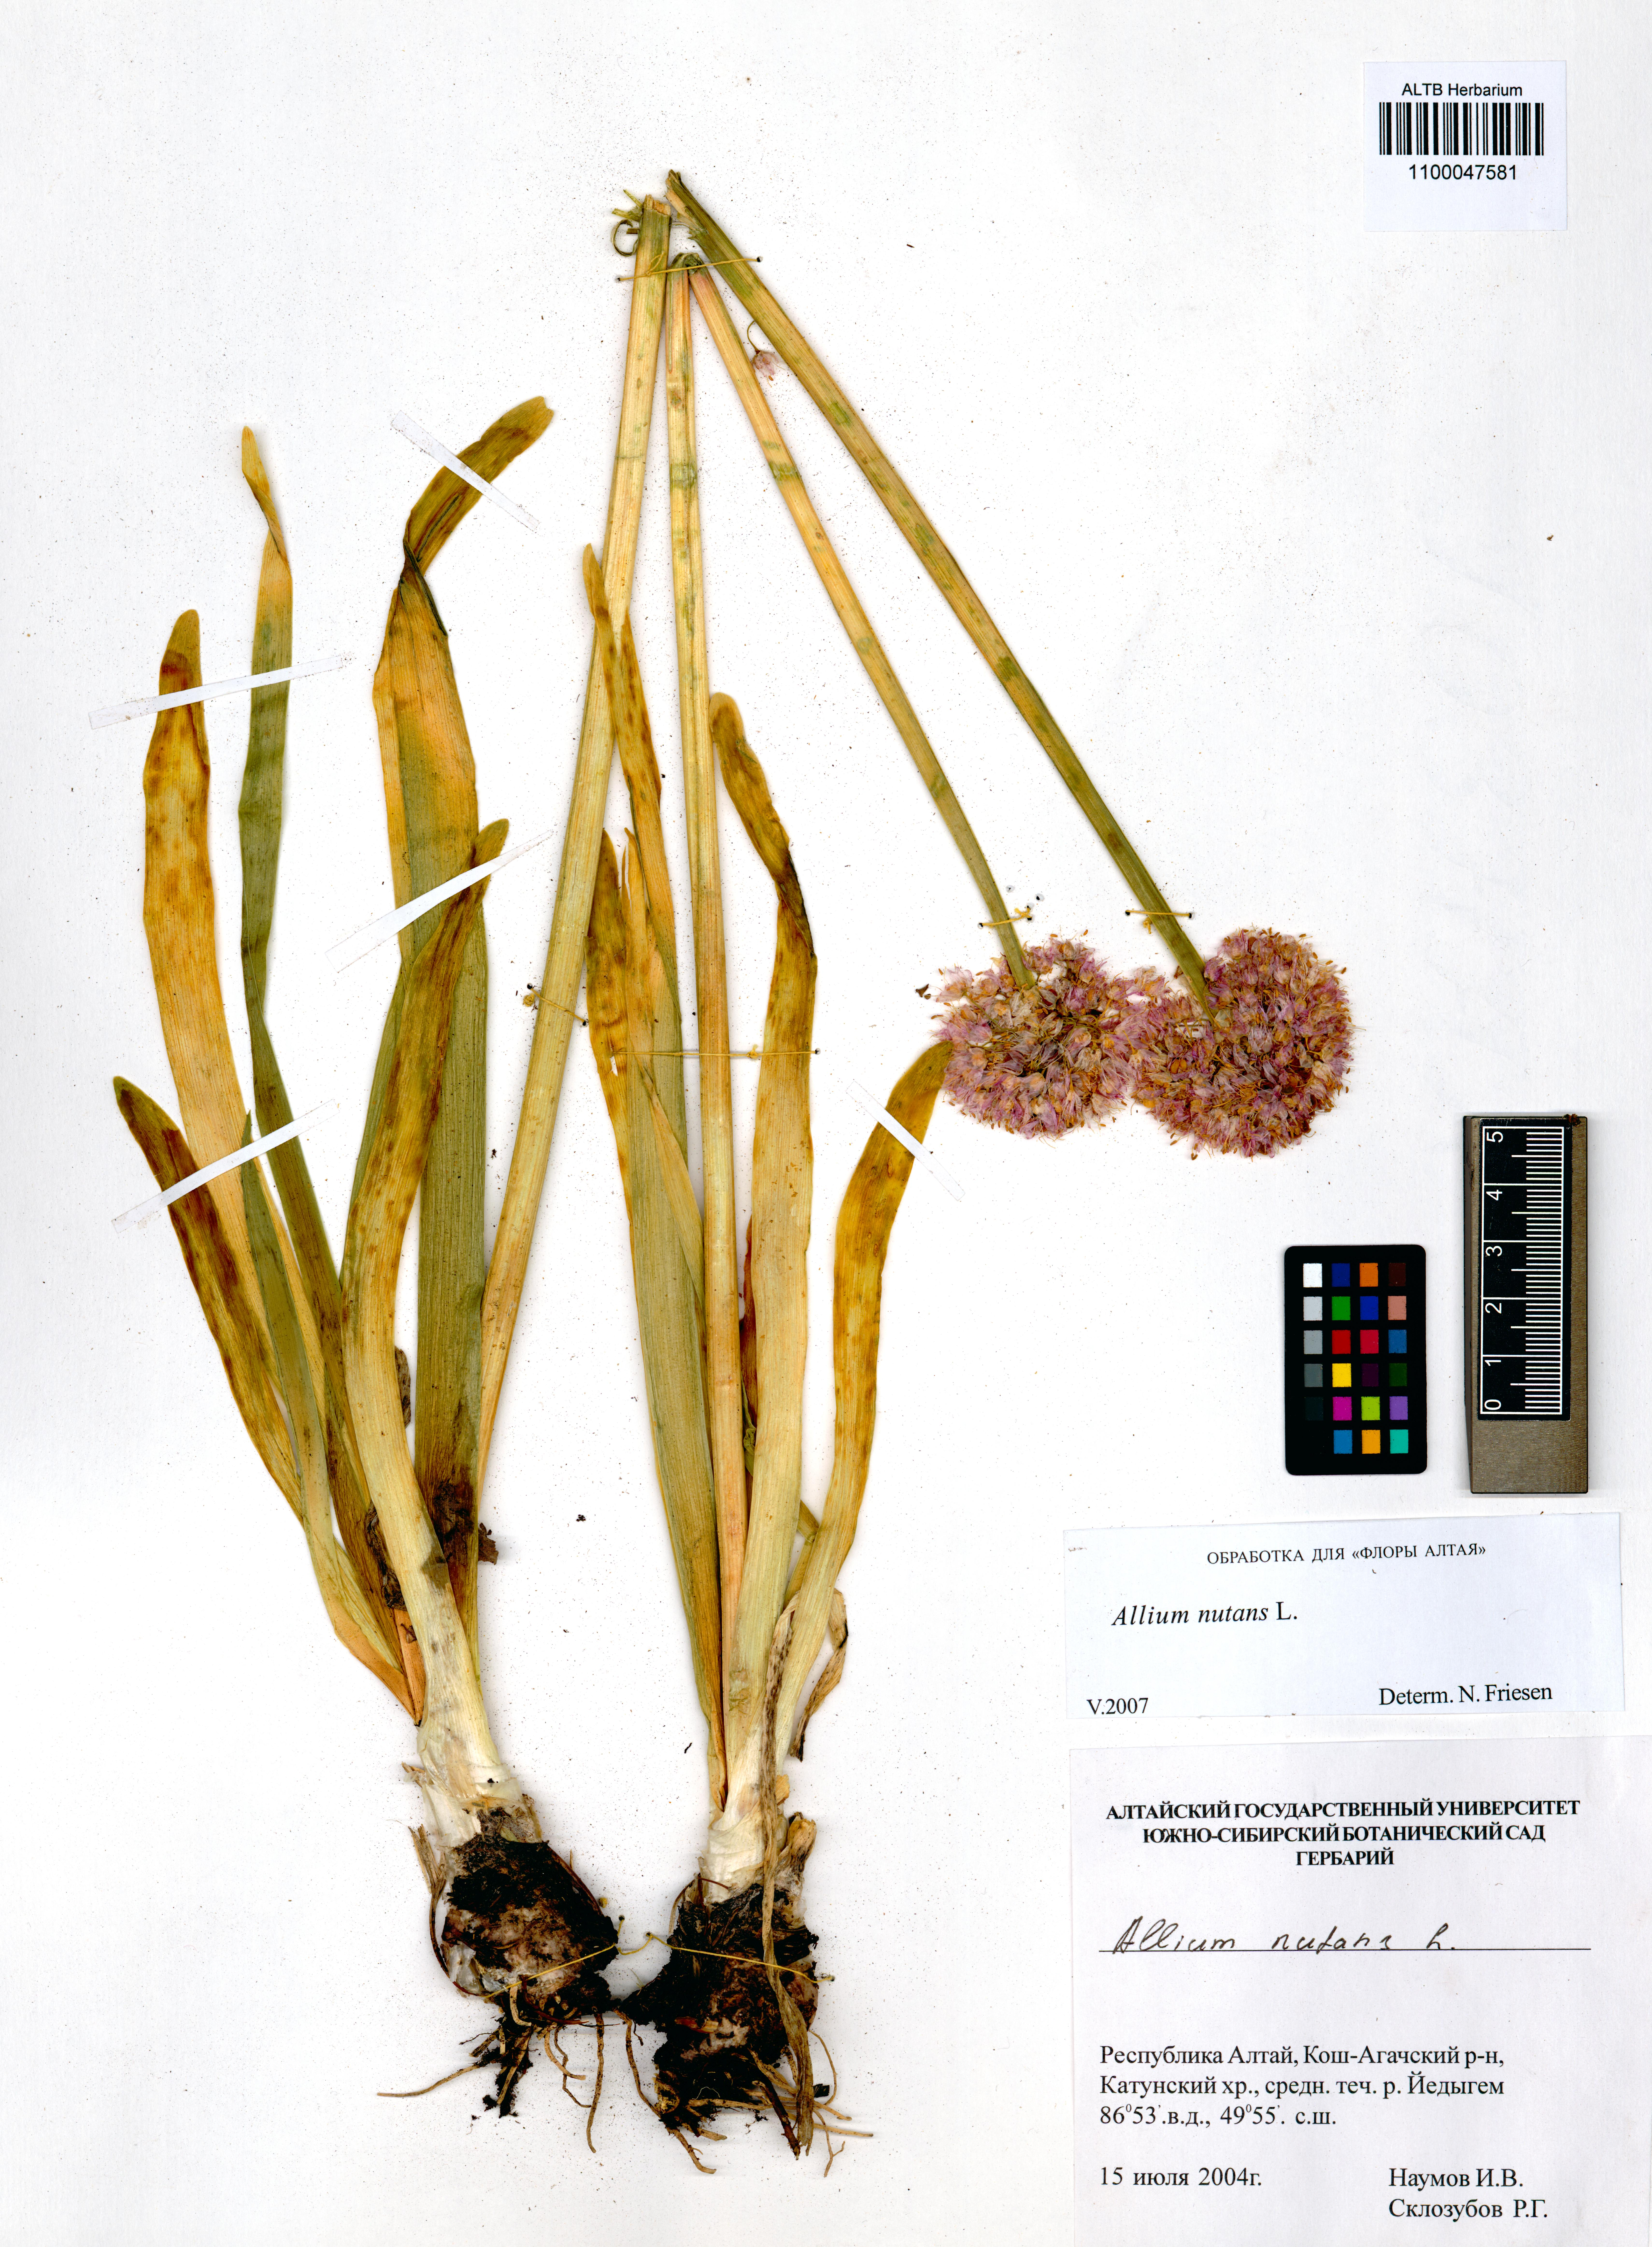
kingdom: Plantae
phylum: Tracheophyta
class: Liliopsida
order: Asparagales
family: Amaryllidaceae
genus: Allium
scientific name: Allium nutans
